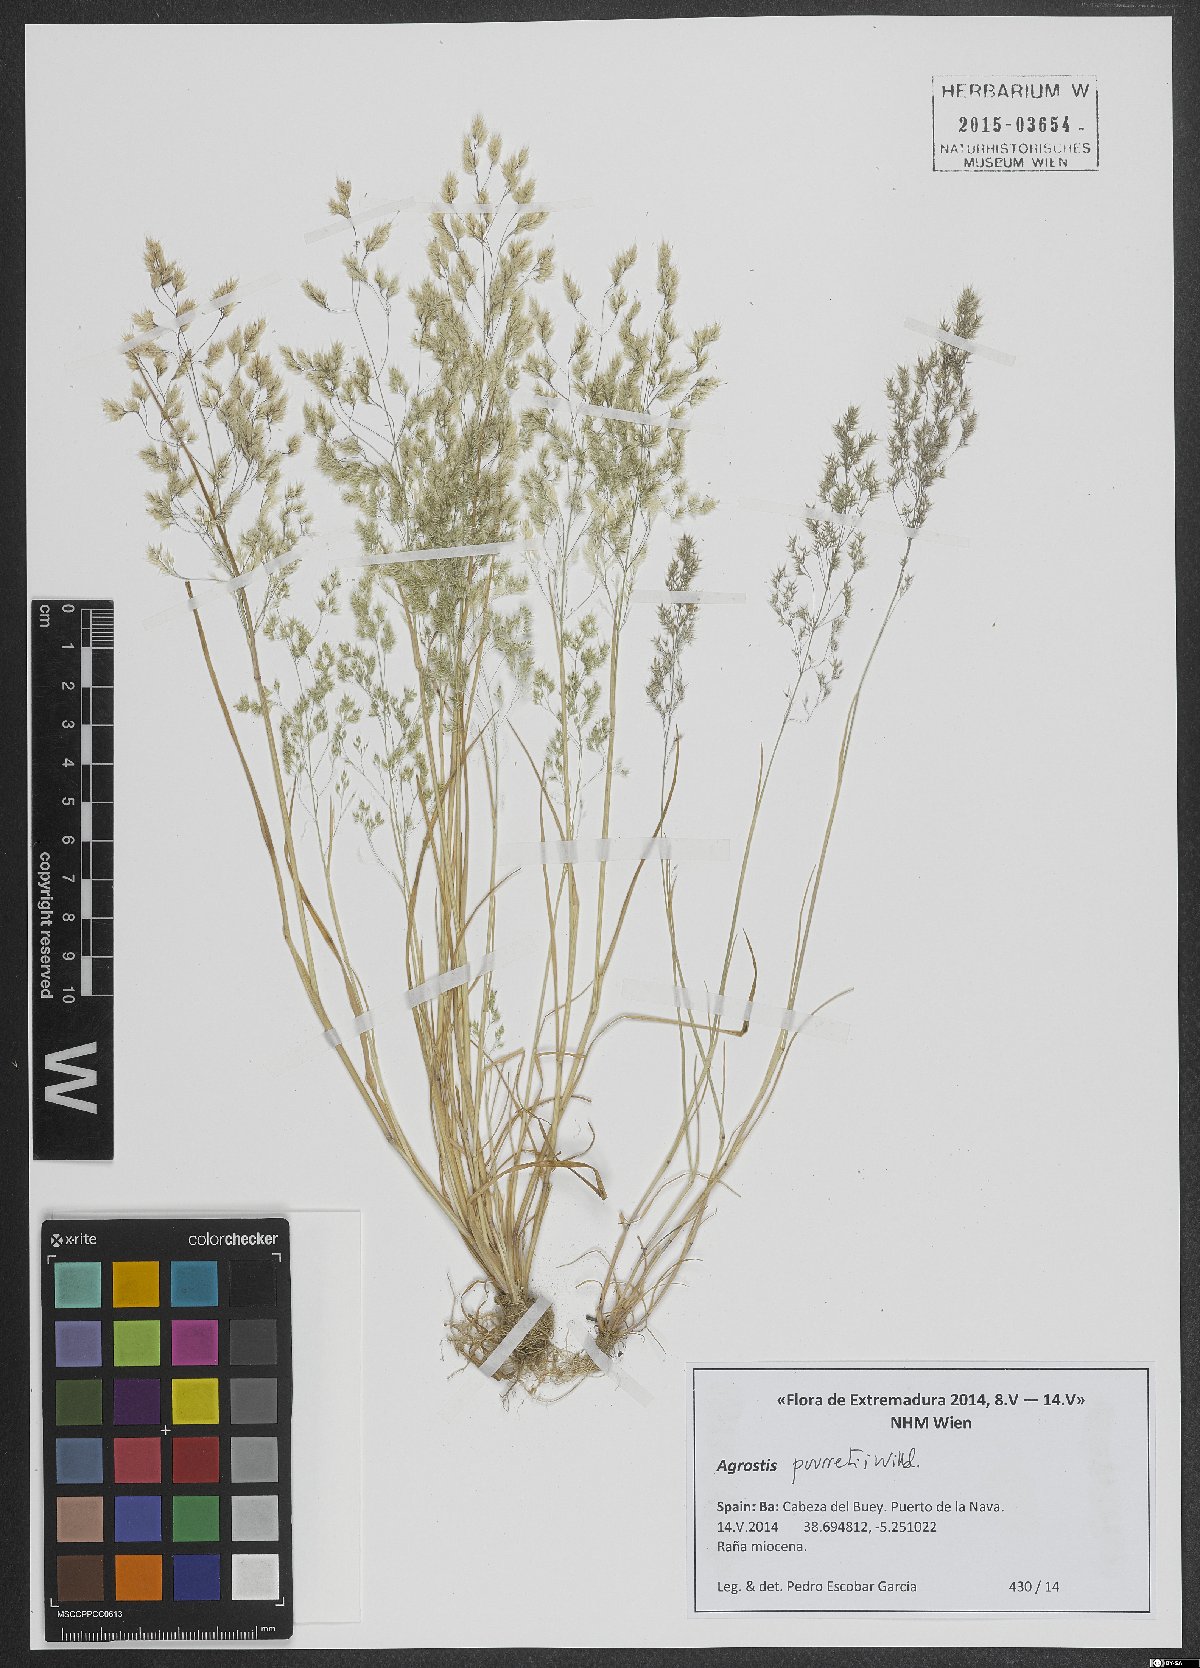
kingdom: Plantae
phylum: Tracheophyta
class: Liliopsida
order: Poales
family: Poaceae
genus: Agrostis
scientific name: Agrostis pourretii
